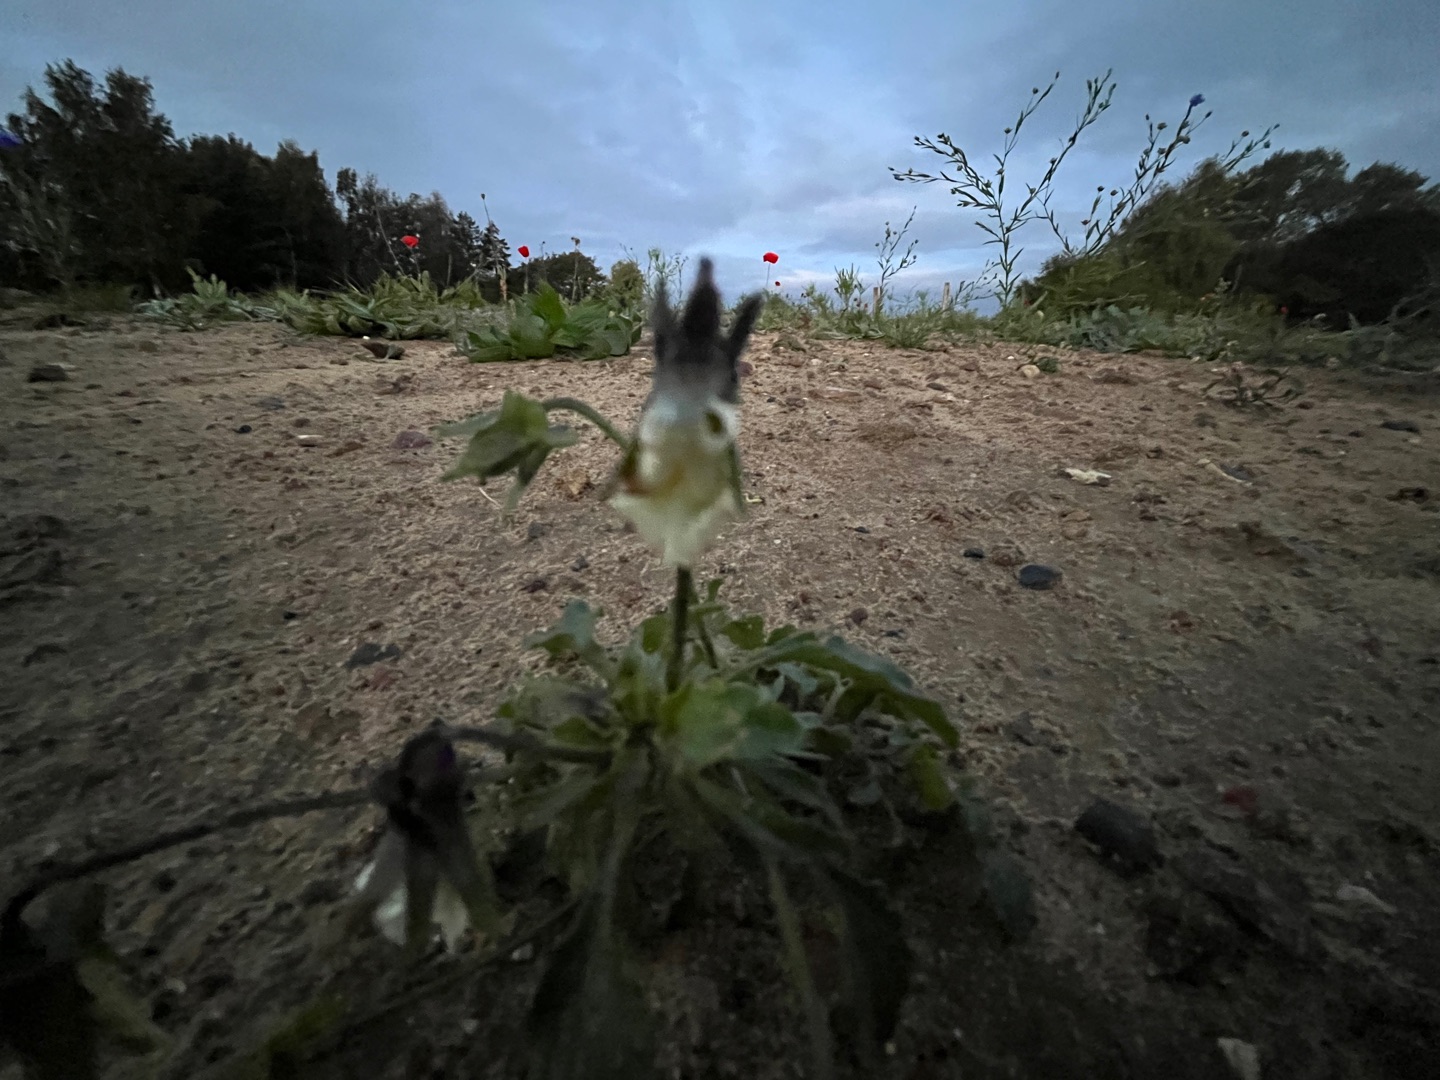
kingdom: Plantae
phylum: Tracheophyta
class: Magnoliopsida
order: Malpighiales
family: Violaceae
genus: Viola
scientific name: Viola arvensis
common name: Ager-stedmoderblomst
